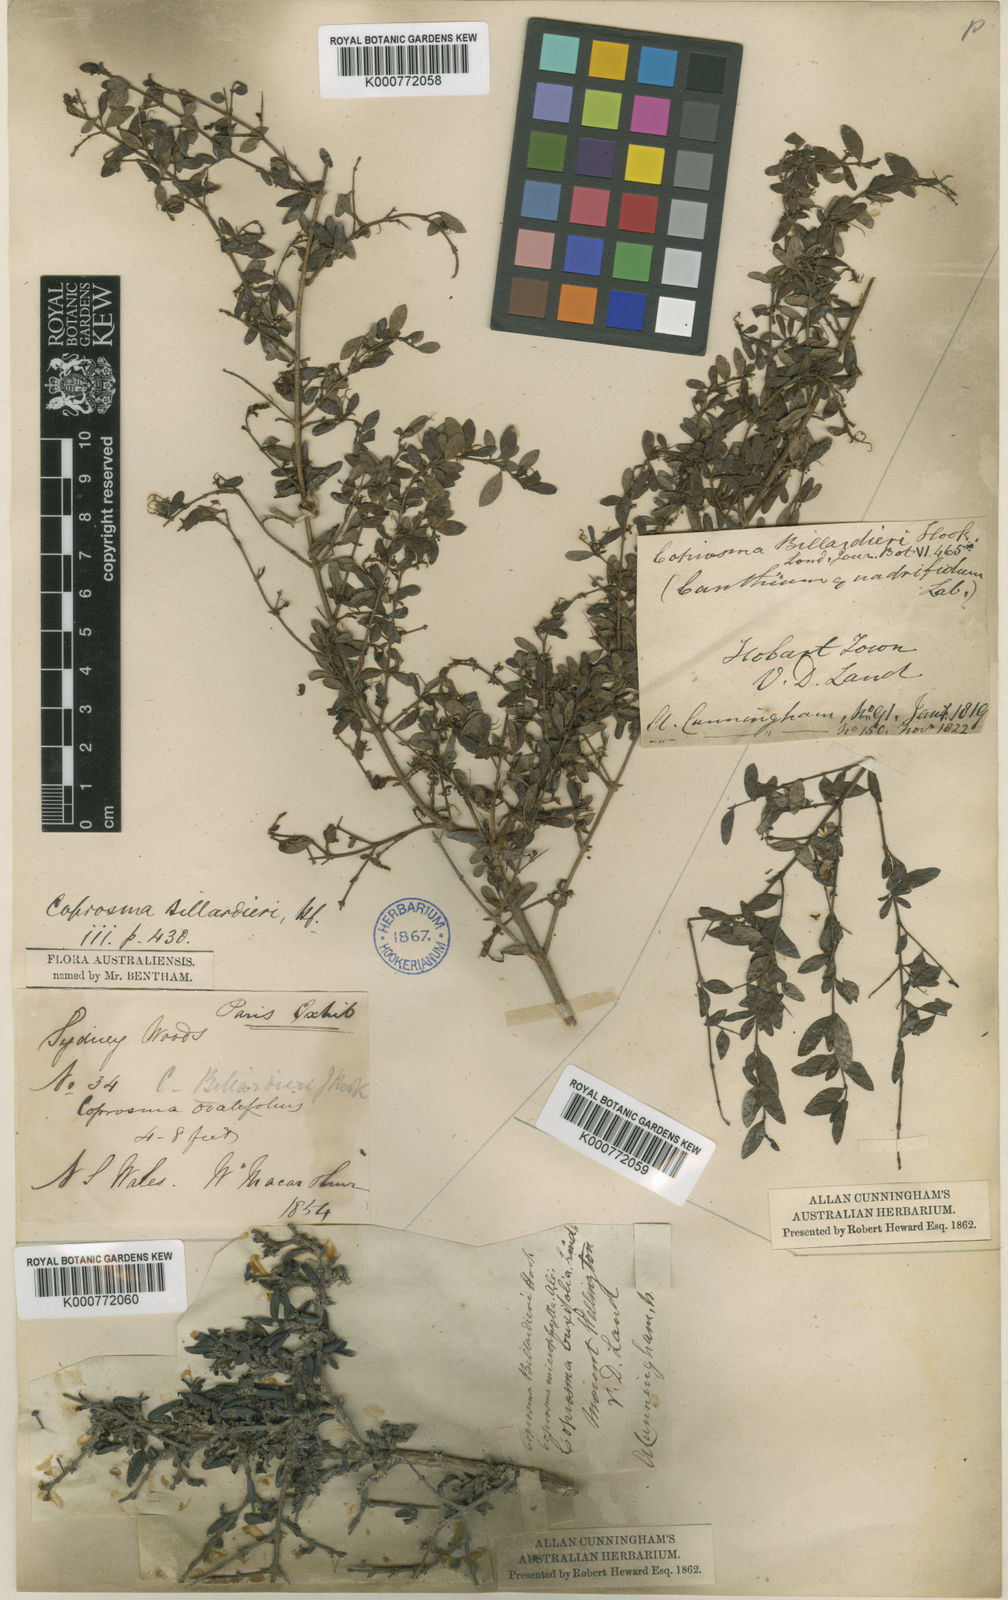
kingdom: Plantae
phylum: Tracheophyta
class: Magnoliopsida
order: Gentianales
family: Rubiaceae
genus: Coprosma
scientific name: Coprosma quadrifida
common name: Prickly currantbush
